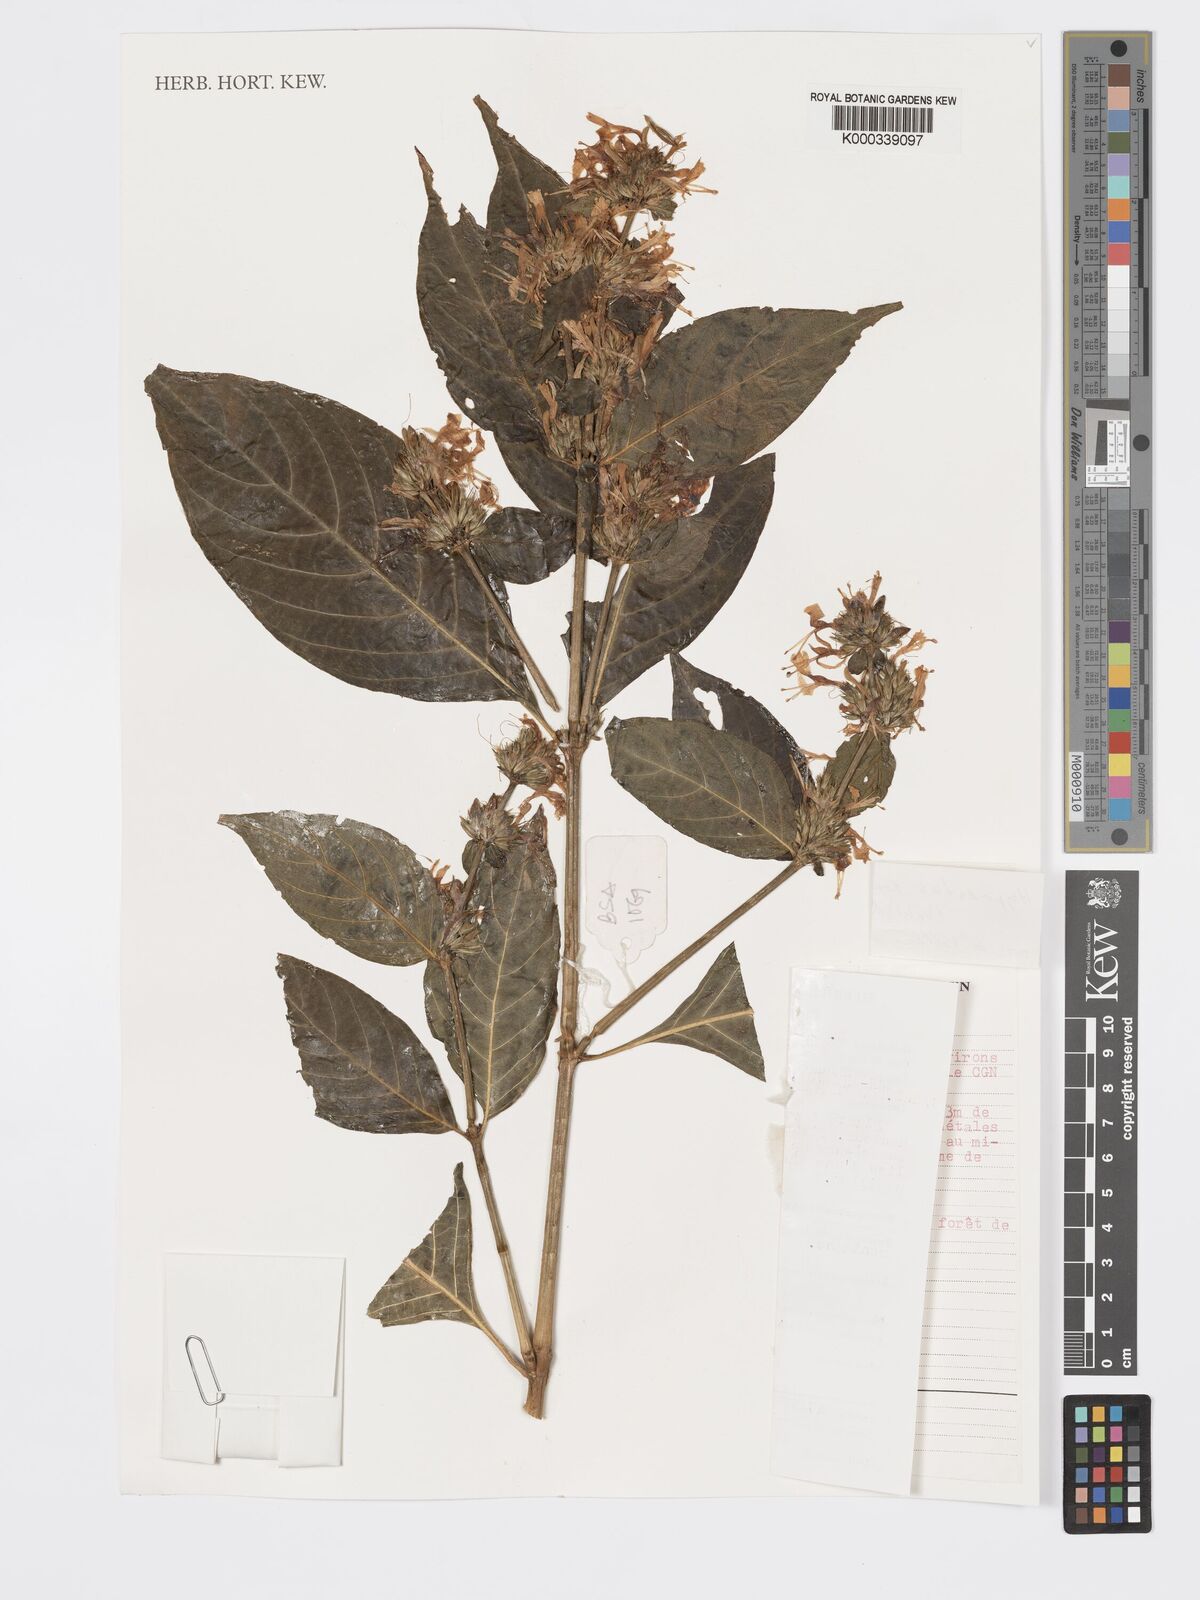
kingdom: Plantae
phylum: Tracheophyta
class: Magnoliopsida
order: Lamiales
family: Acanthaceae
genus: Hypoestes
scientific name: Hypoestes aristata
